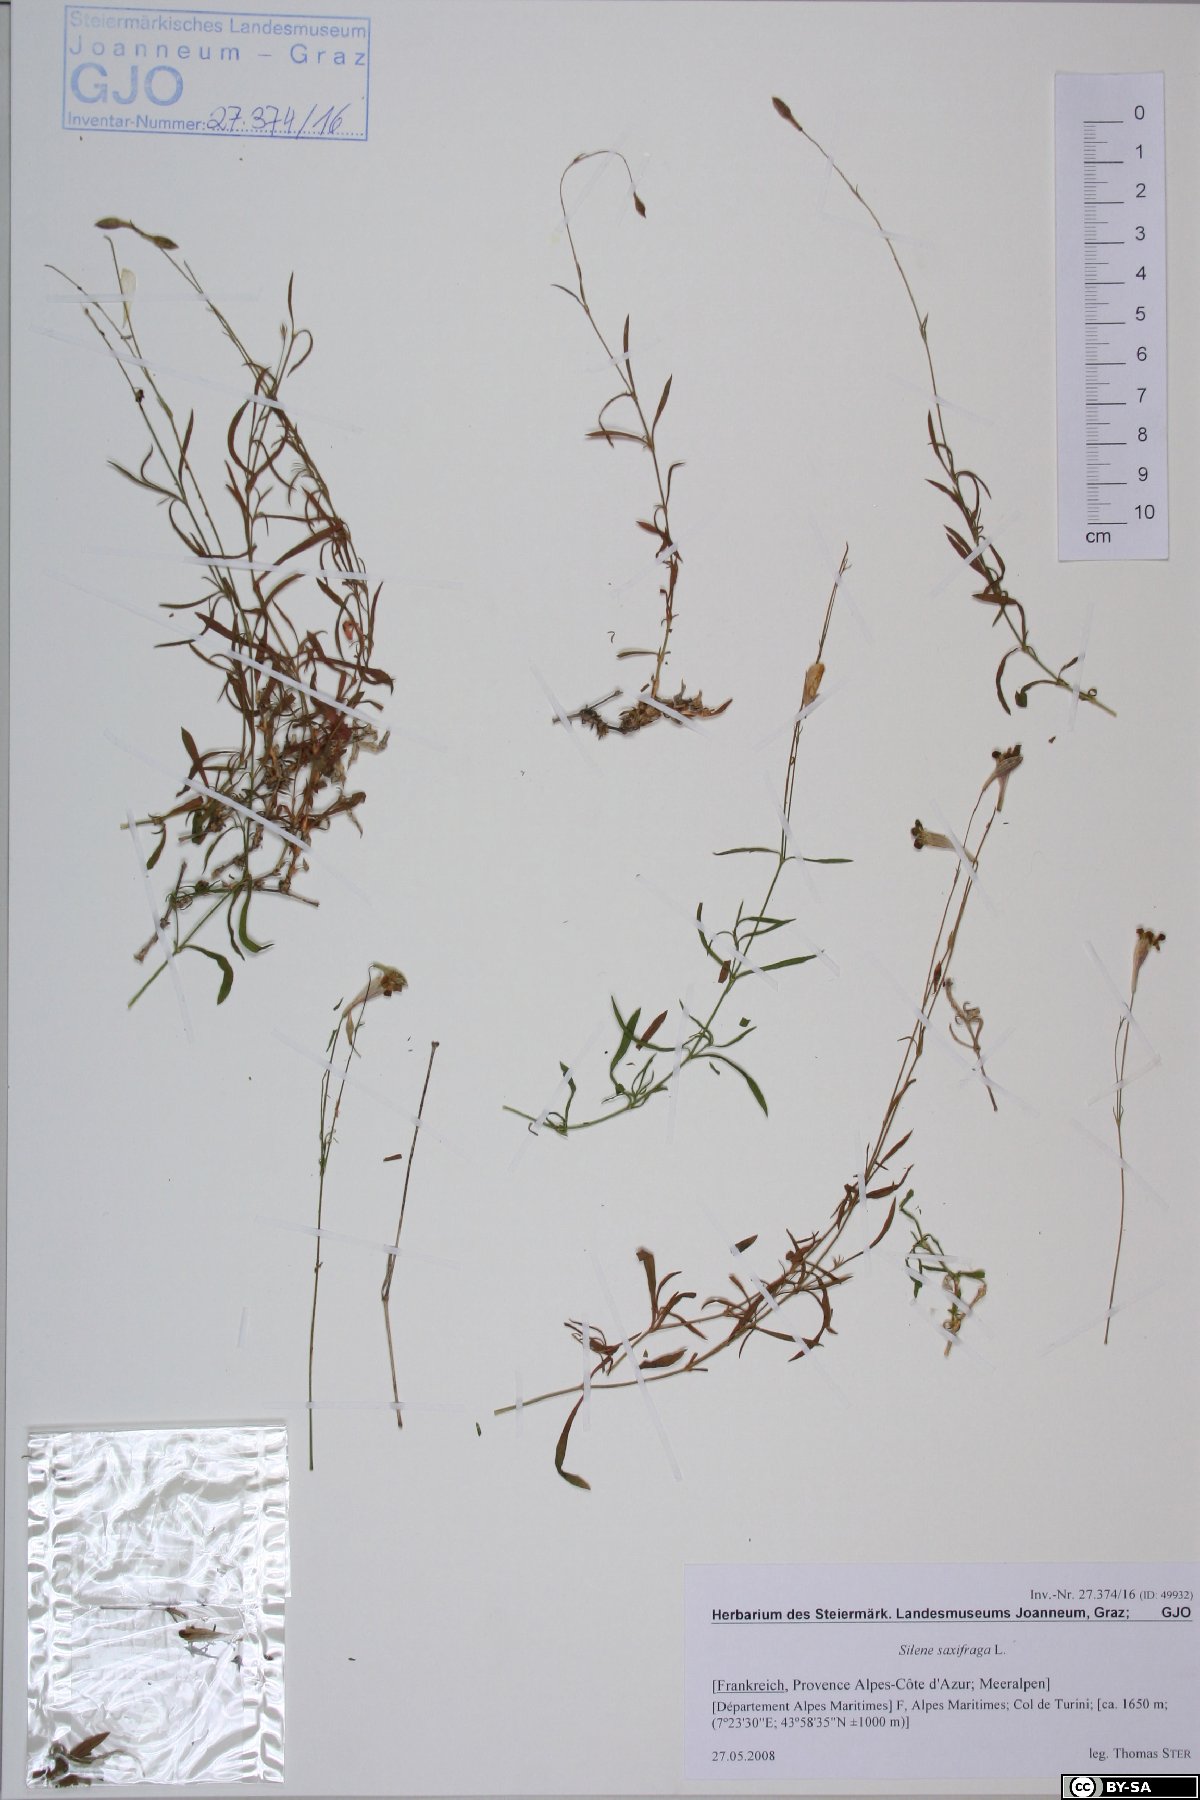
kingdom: Plantae
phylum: Tracheophyta
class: Magnoliopsida
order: Caryophyllales
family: Caryophyllaceae
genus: Silene
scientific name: Silene saxifraga
